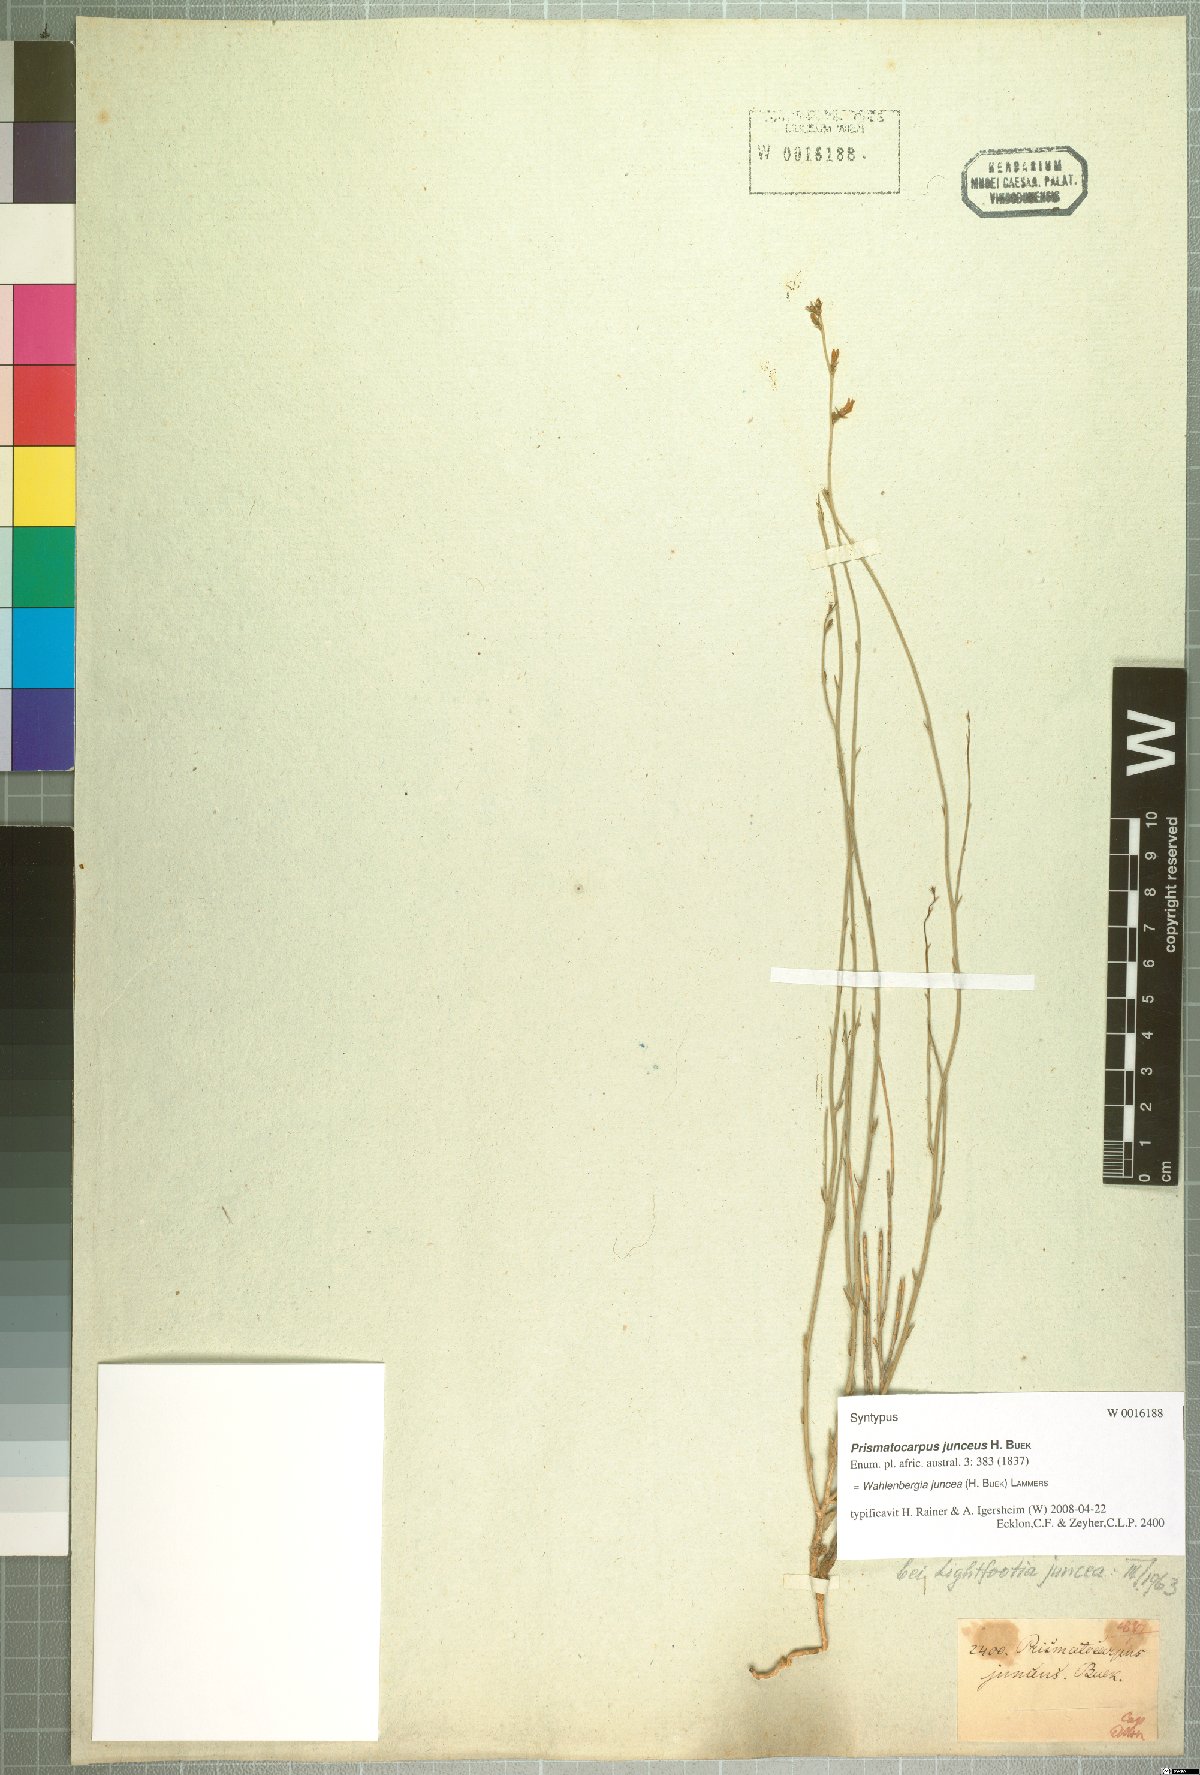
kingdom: Plantae
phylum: Tracheophyta
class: Magnoliopsida
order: Asterales
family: Campanulaceae
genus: Wahlenbergia
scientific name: Wahlenbergia juncea
